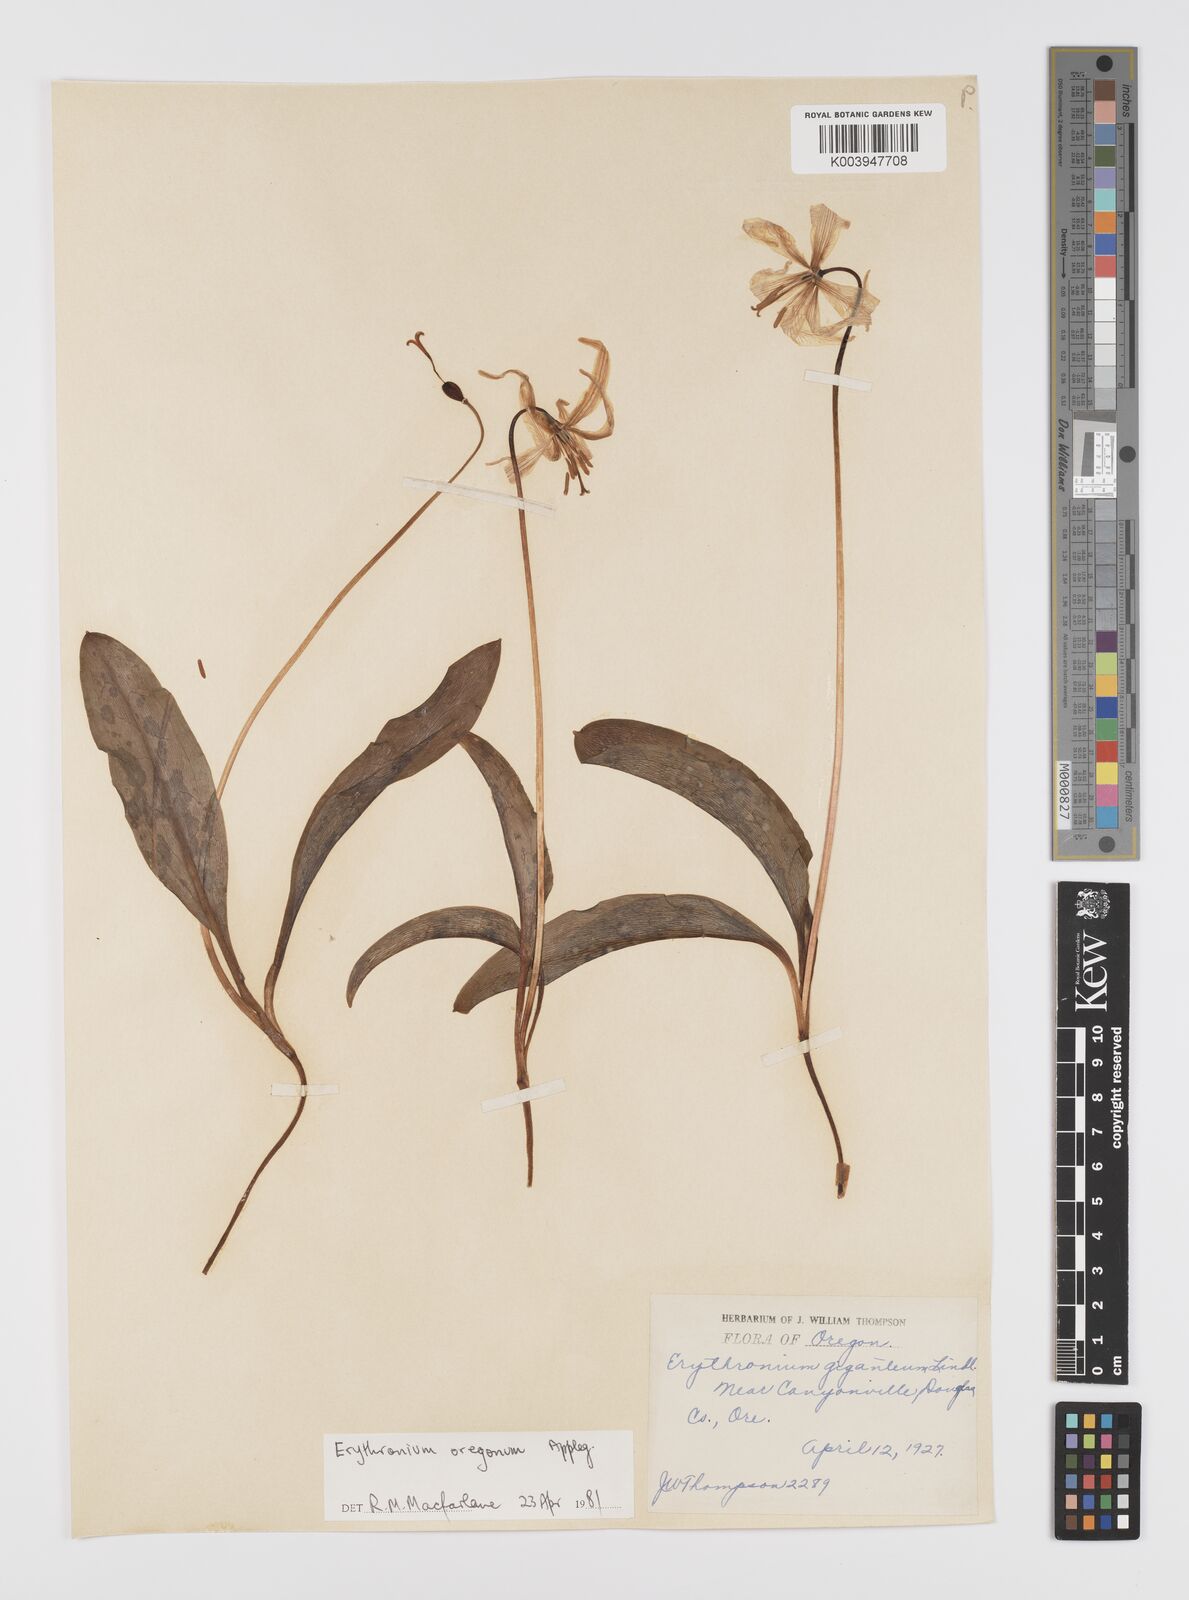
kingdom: Plantae
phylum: Tracheophyta
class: Liliopsida
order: Liliales
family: Liliaceae
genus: Erythronium
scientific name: Erythronium oregonum
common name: Giant adder's-tongue
